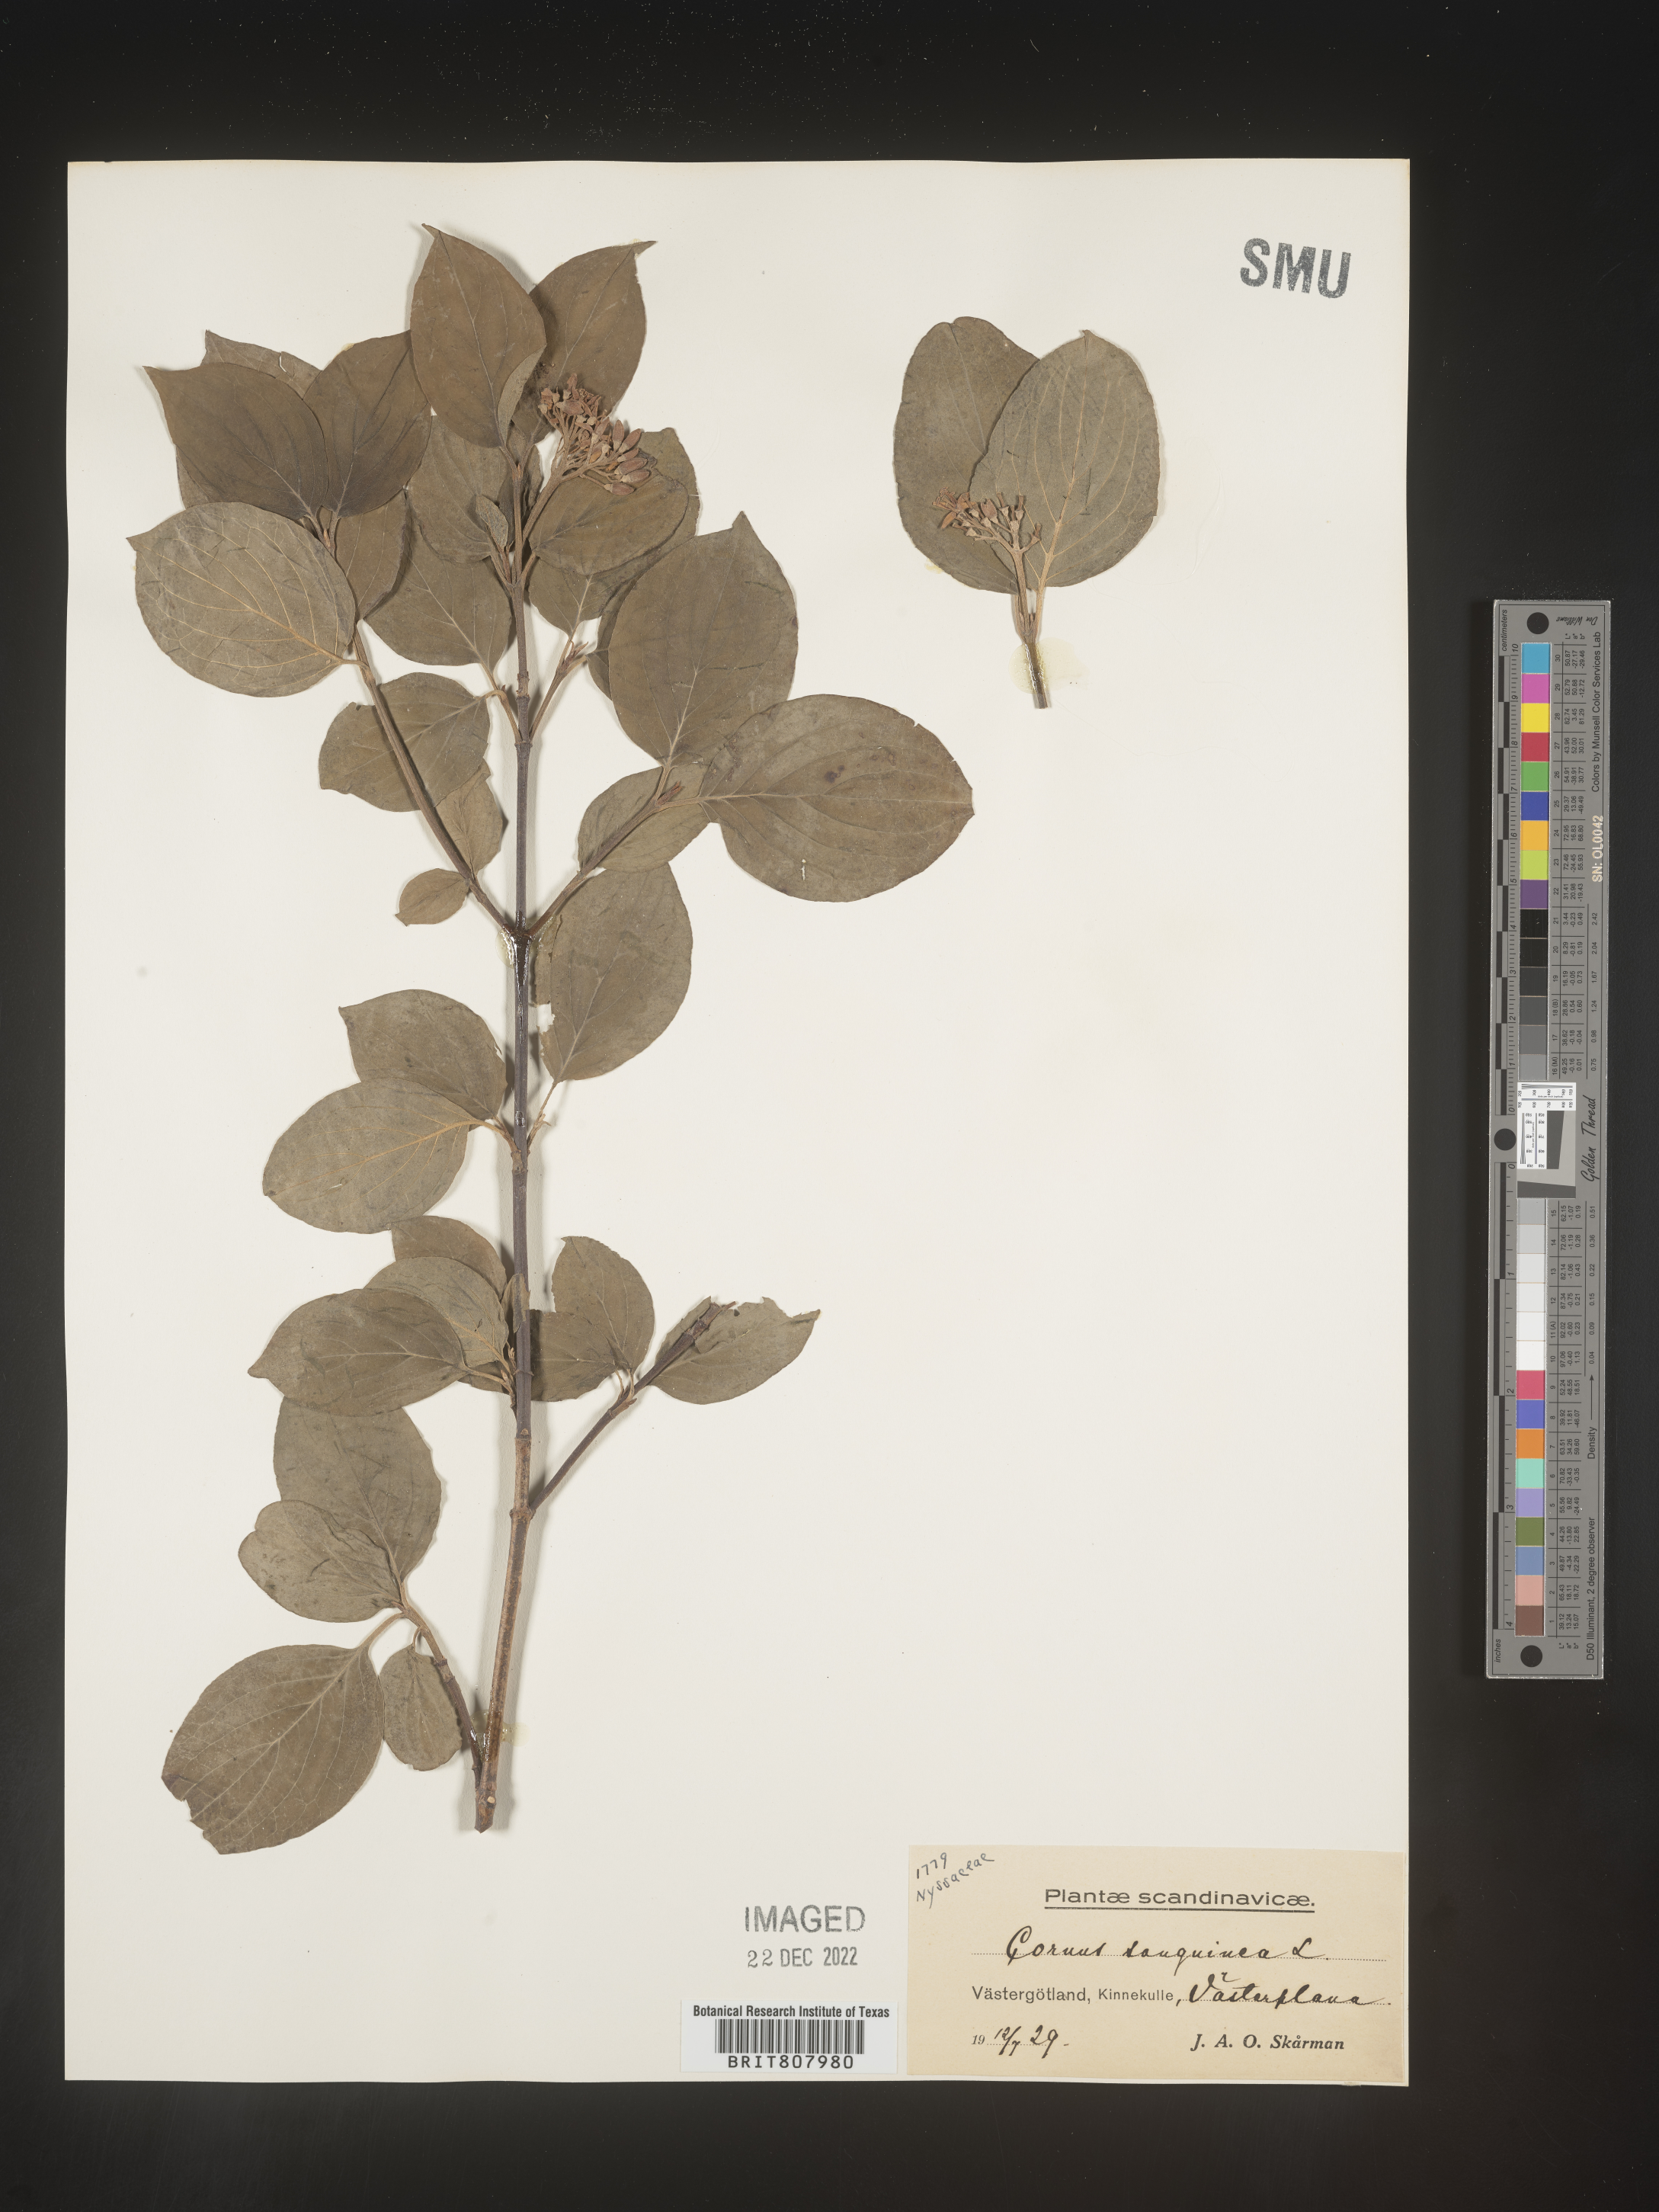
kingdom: Plantae
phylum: Tracheophyta
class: Magnoliopsida
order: Cornales
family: Cornaceae
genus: Cornus
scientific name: Cornus
